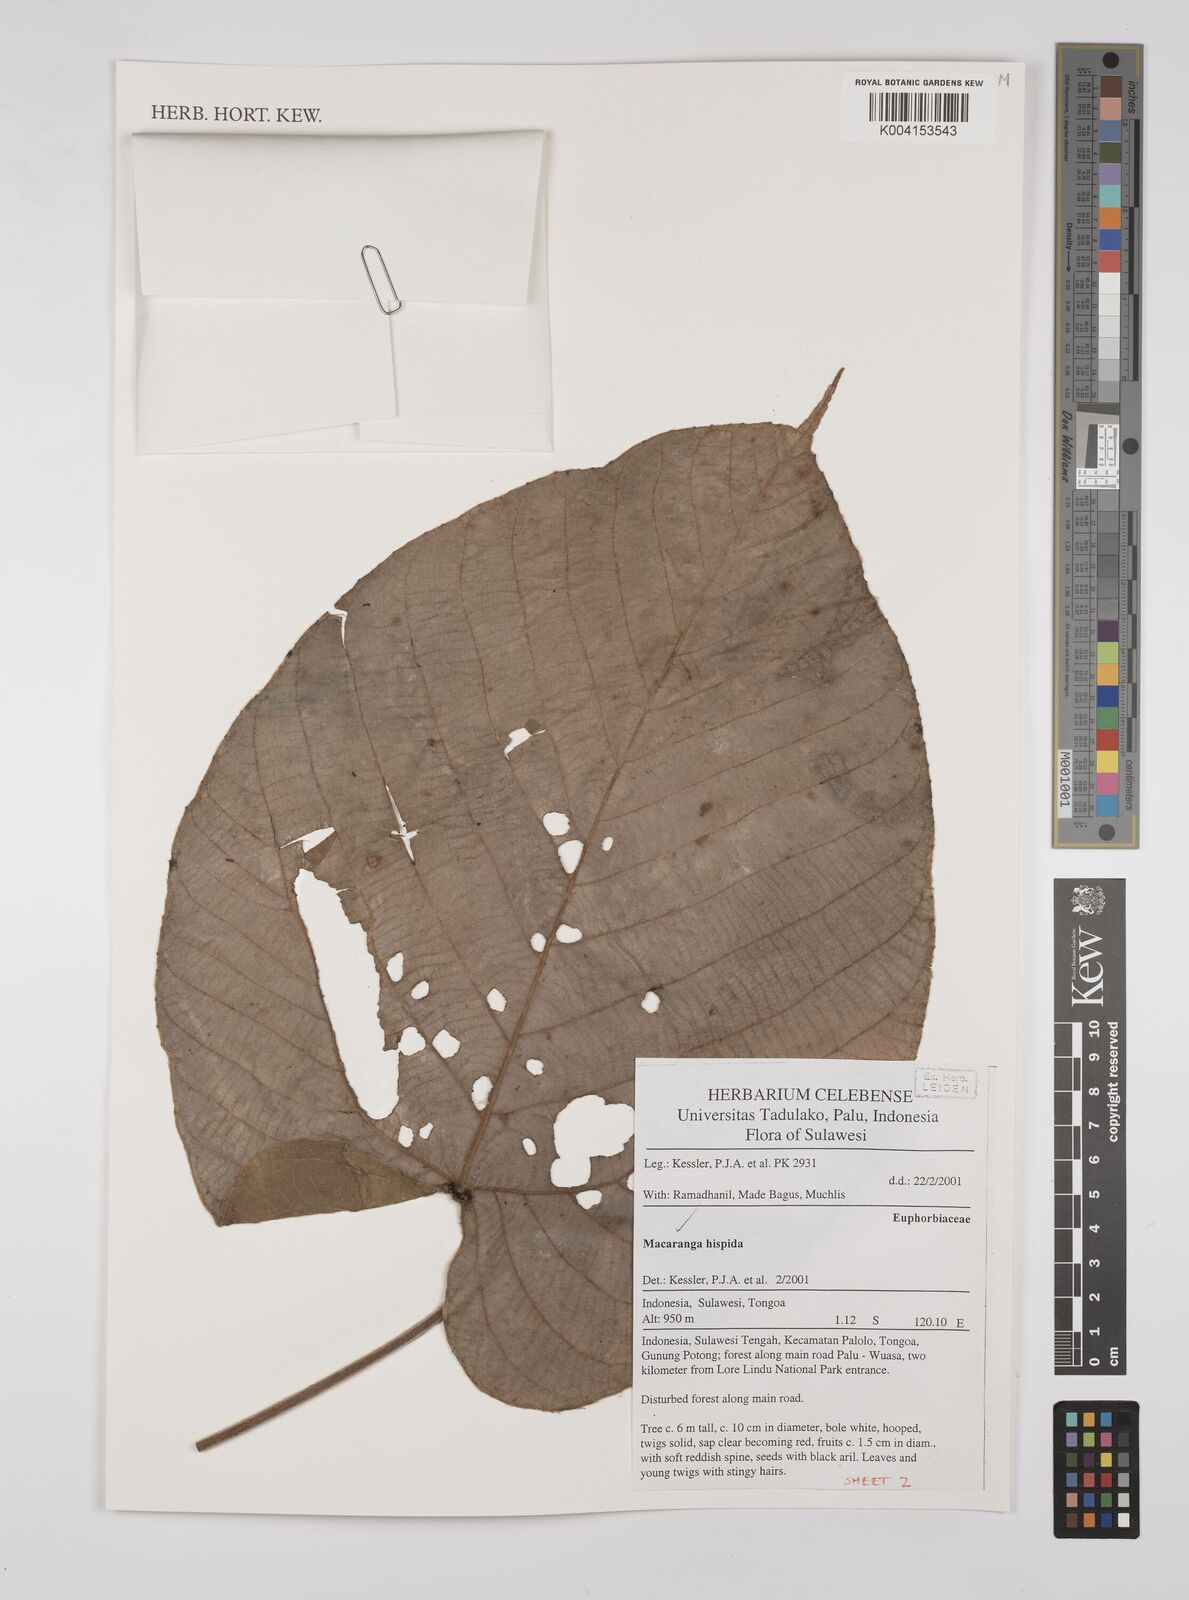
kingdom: Plantae
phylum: Tracheophyta
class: Magnoliopsida
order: Malpighiales
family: Euphorbiaceae
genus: Macaranga
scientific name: Macaranga hispida
